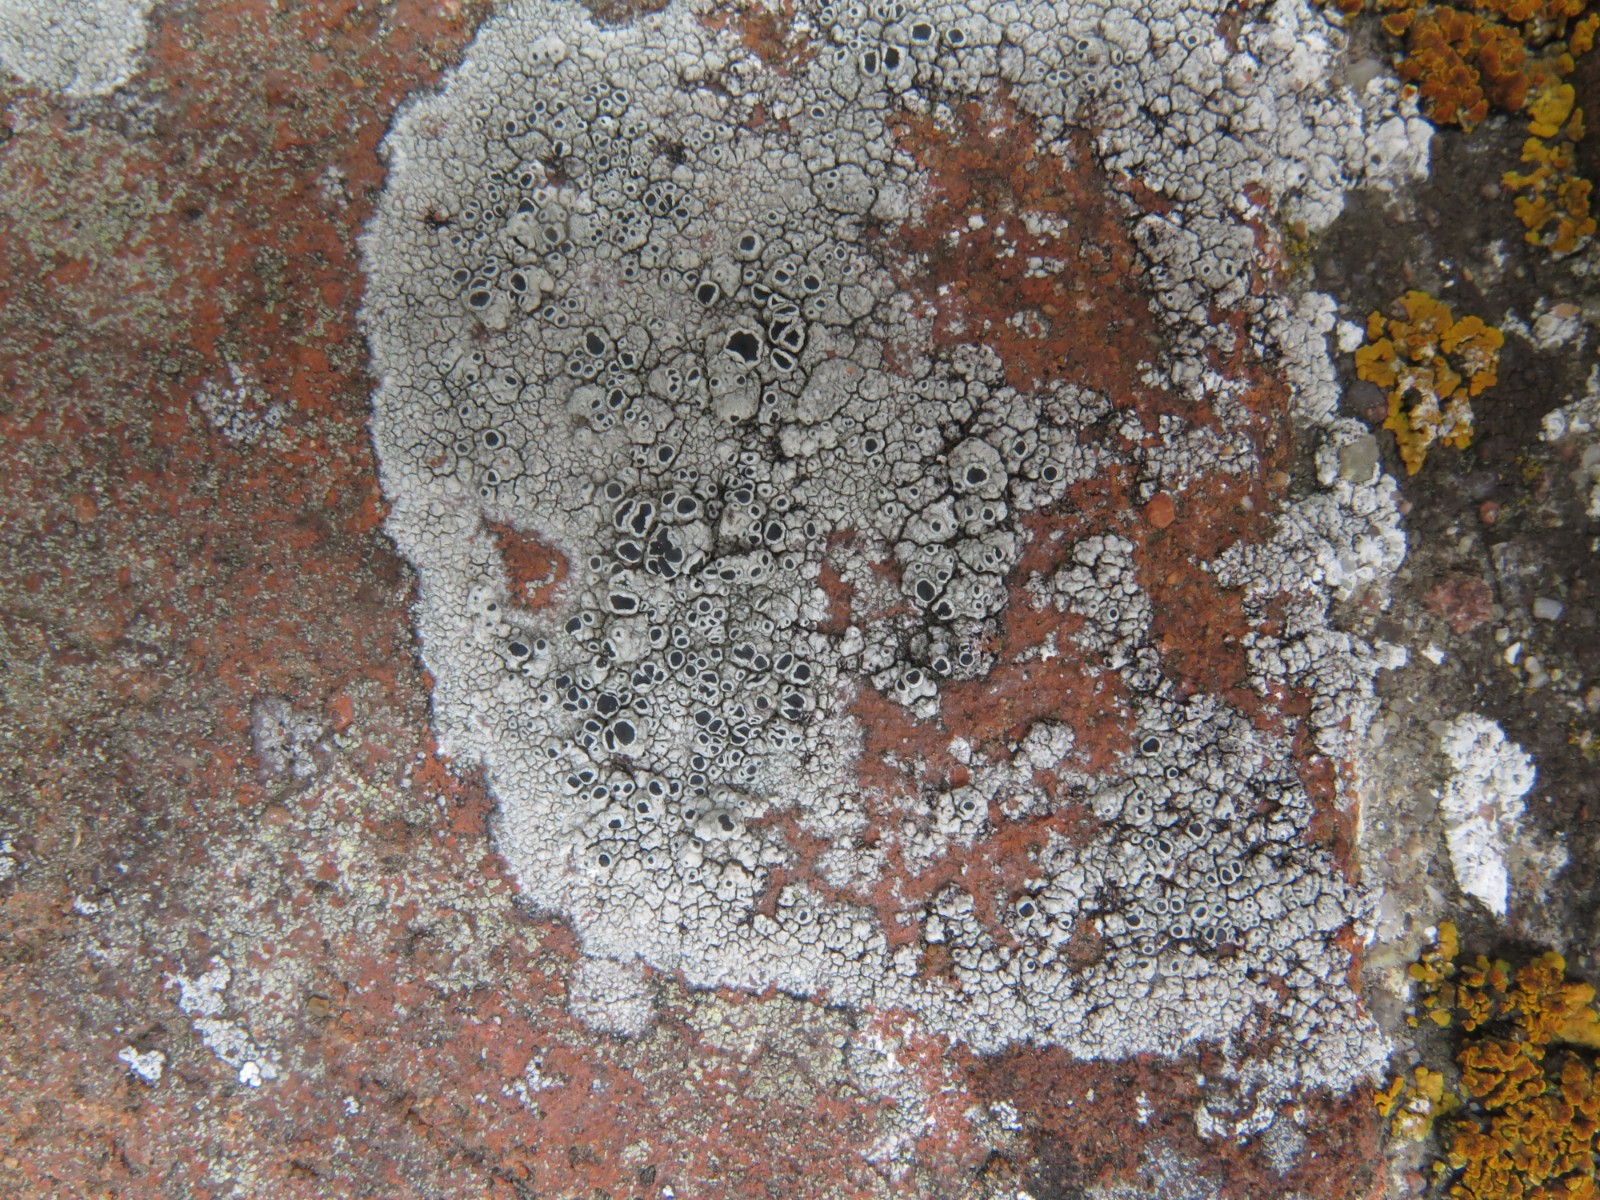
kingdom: Fungi
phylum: Ascomycota
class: Lecanoromycetes
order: Lecanorales
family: Tephromelataceae
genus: Tephromela
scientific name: Tephromela atra
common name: sortfrugtet kantskivelav
